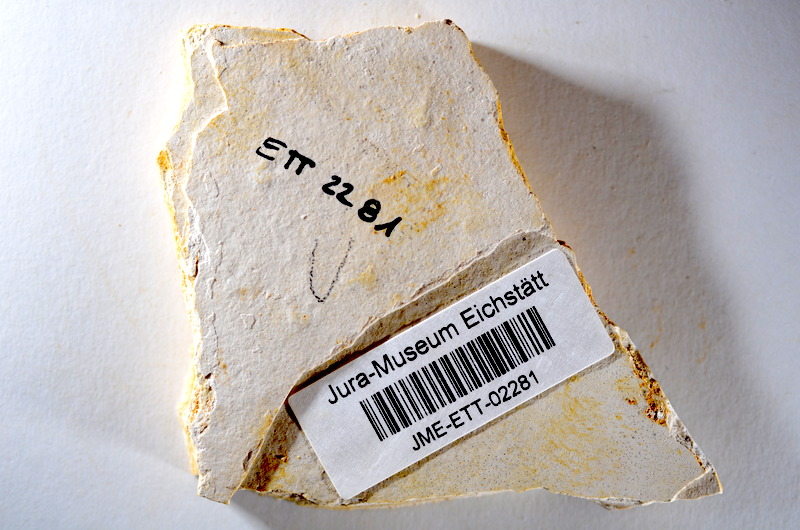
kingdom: Animalia
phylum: Chordata
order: Salmoniformes
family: Orthogonikleithridae
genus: Orthogonikleithrus
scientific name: Orthogonikleithrus hoelli
